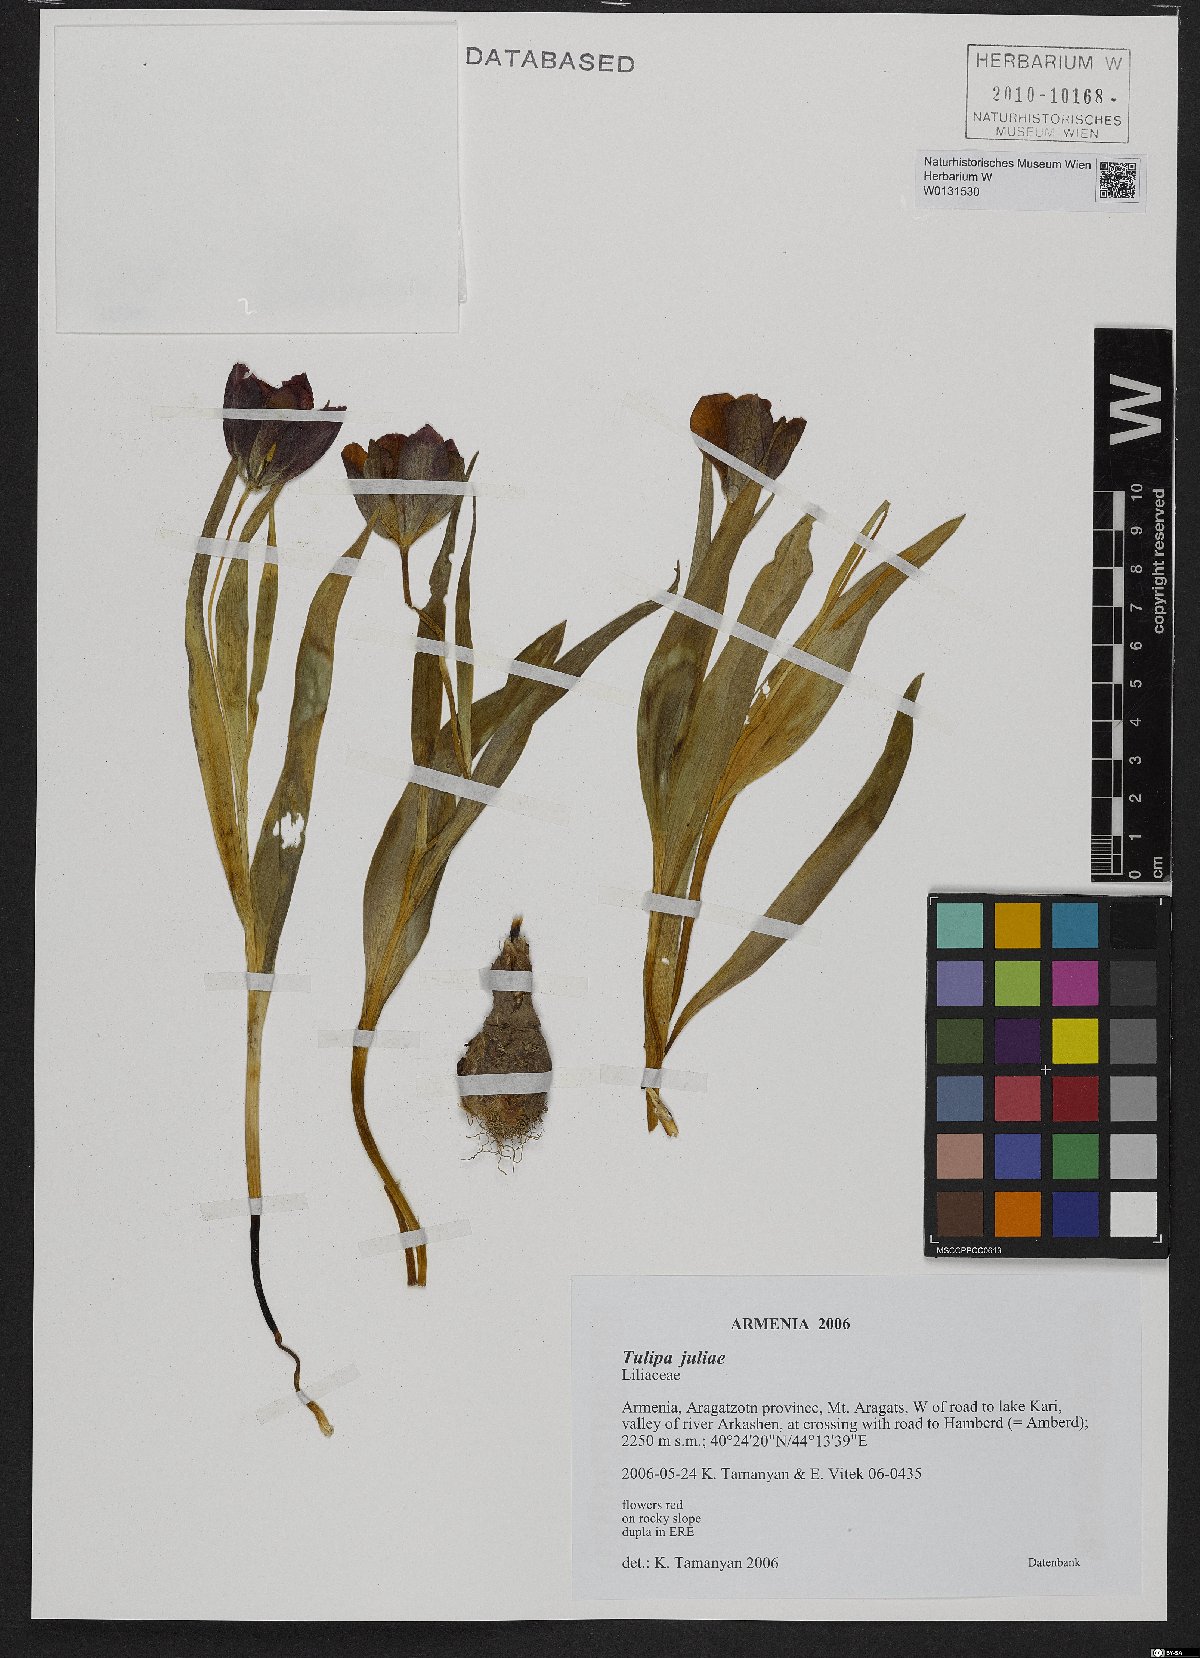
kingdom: Plantae
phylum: Tracheophyta
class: Liliopsida
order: Liliales
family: Liliaceae
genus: Tulipa
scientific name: Tulipa julia
